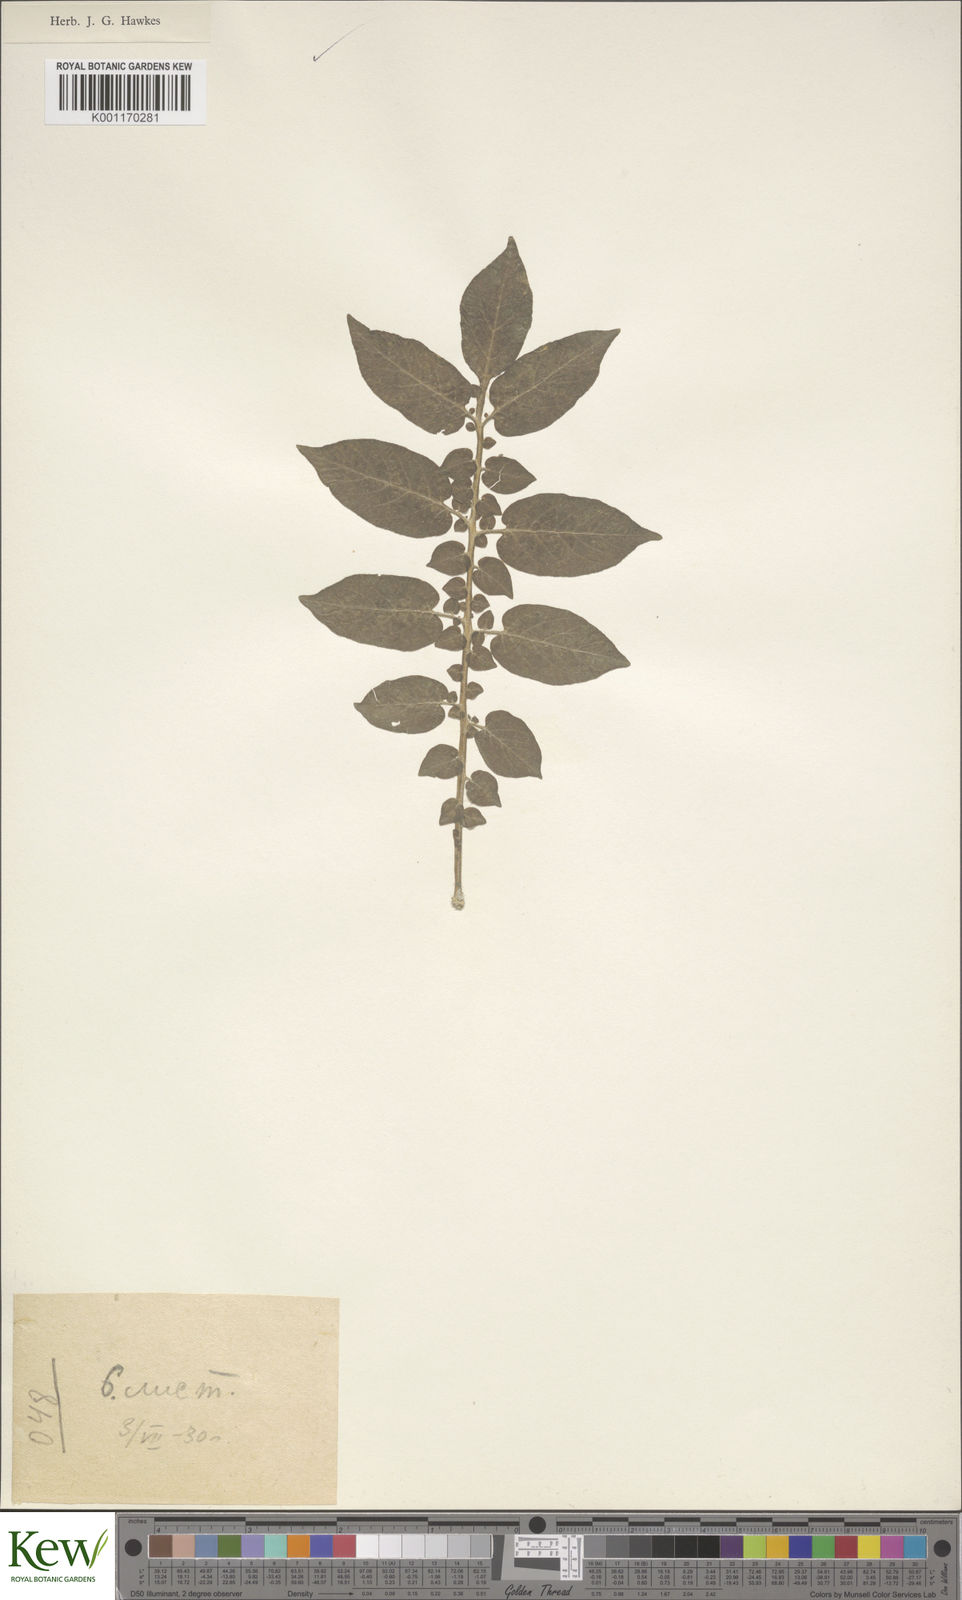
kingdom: Plantae
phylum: Tracheophyta
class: Magnoliopsida
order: Solanales
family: Solanaceae
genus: Solanum
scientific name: Solanum stoloniferum
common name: Fendler's nighshade
